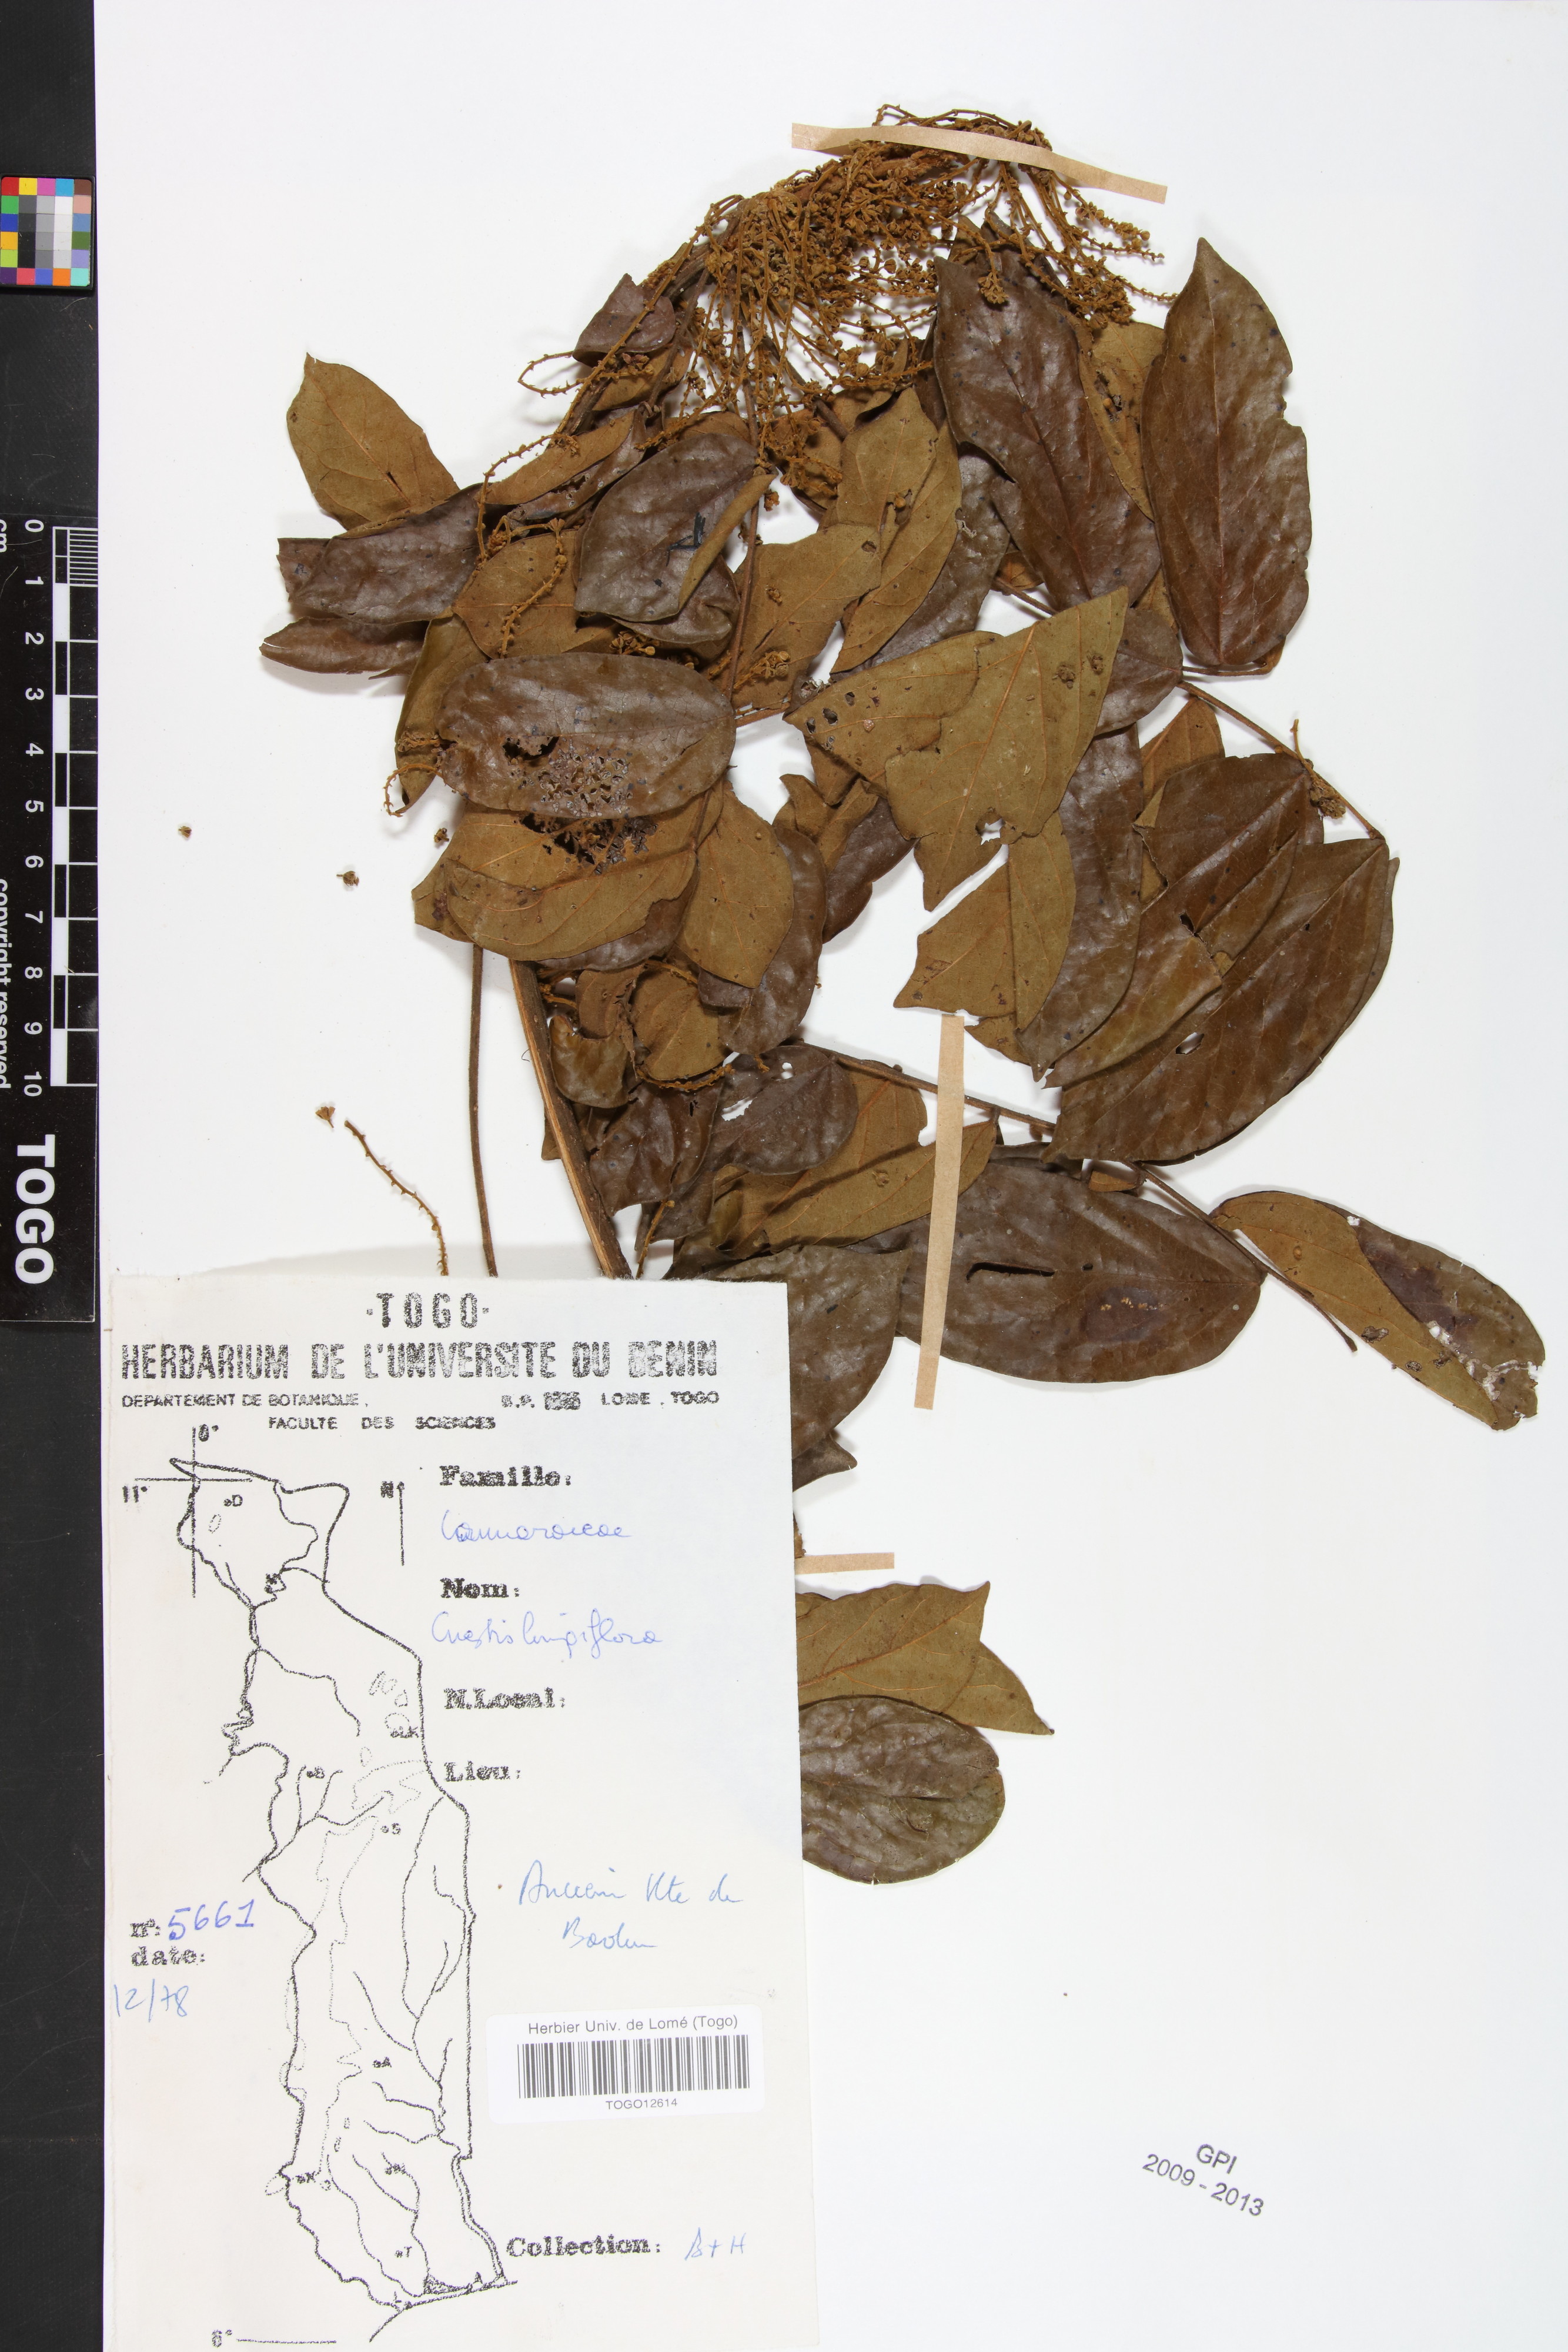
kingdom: Plantae
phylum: Tracheophyta
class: Magnoliopsida
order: Oxalidales
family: Connaraceae
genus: Cnestis
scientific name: Cnestis corniculata
